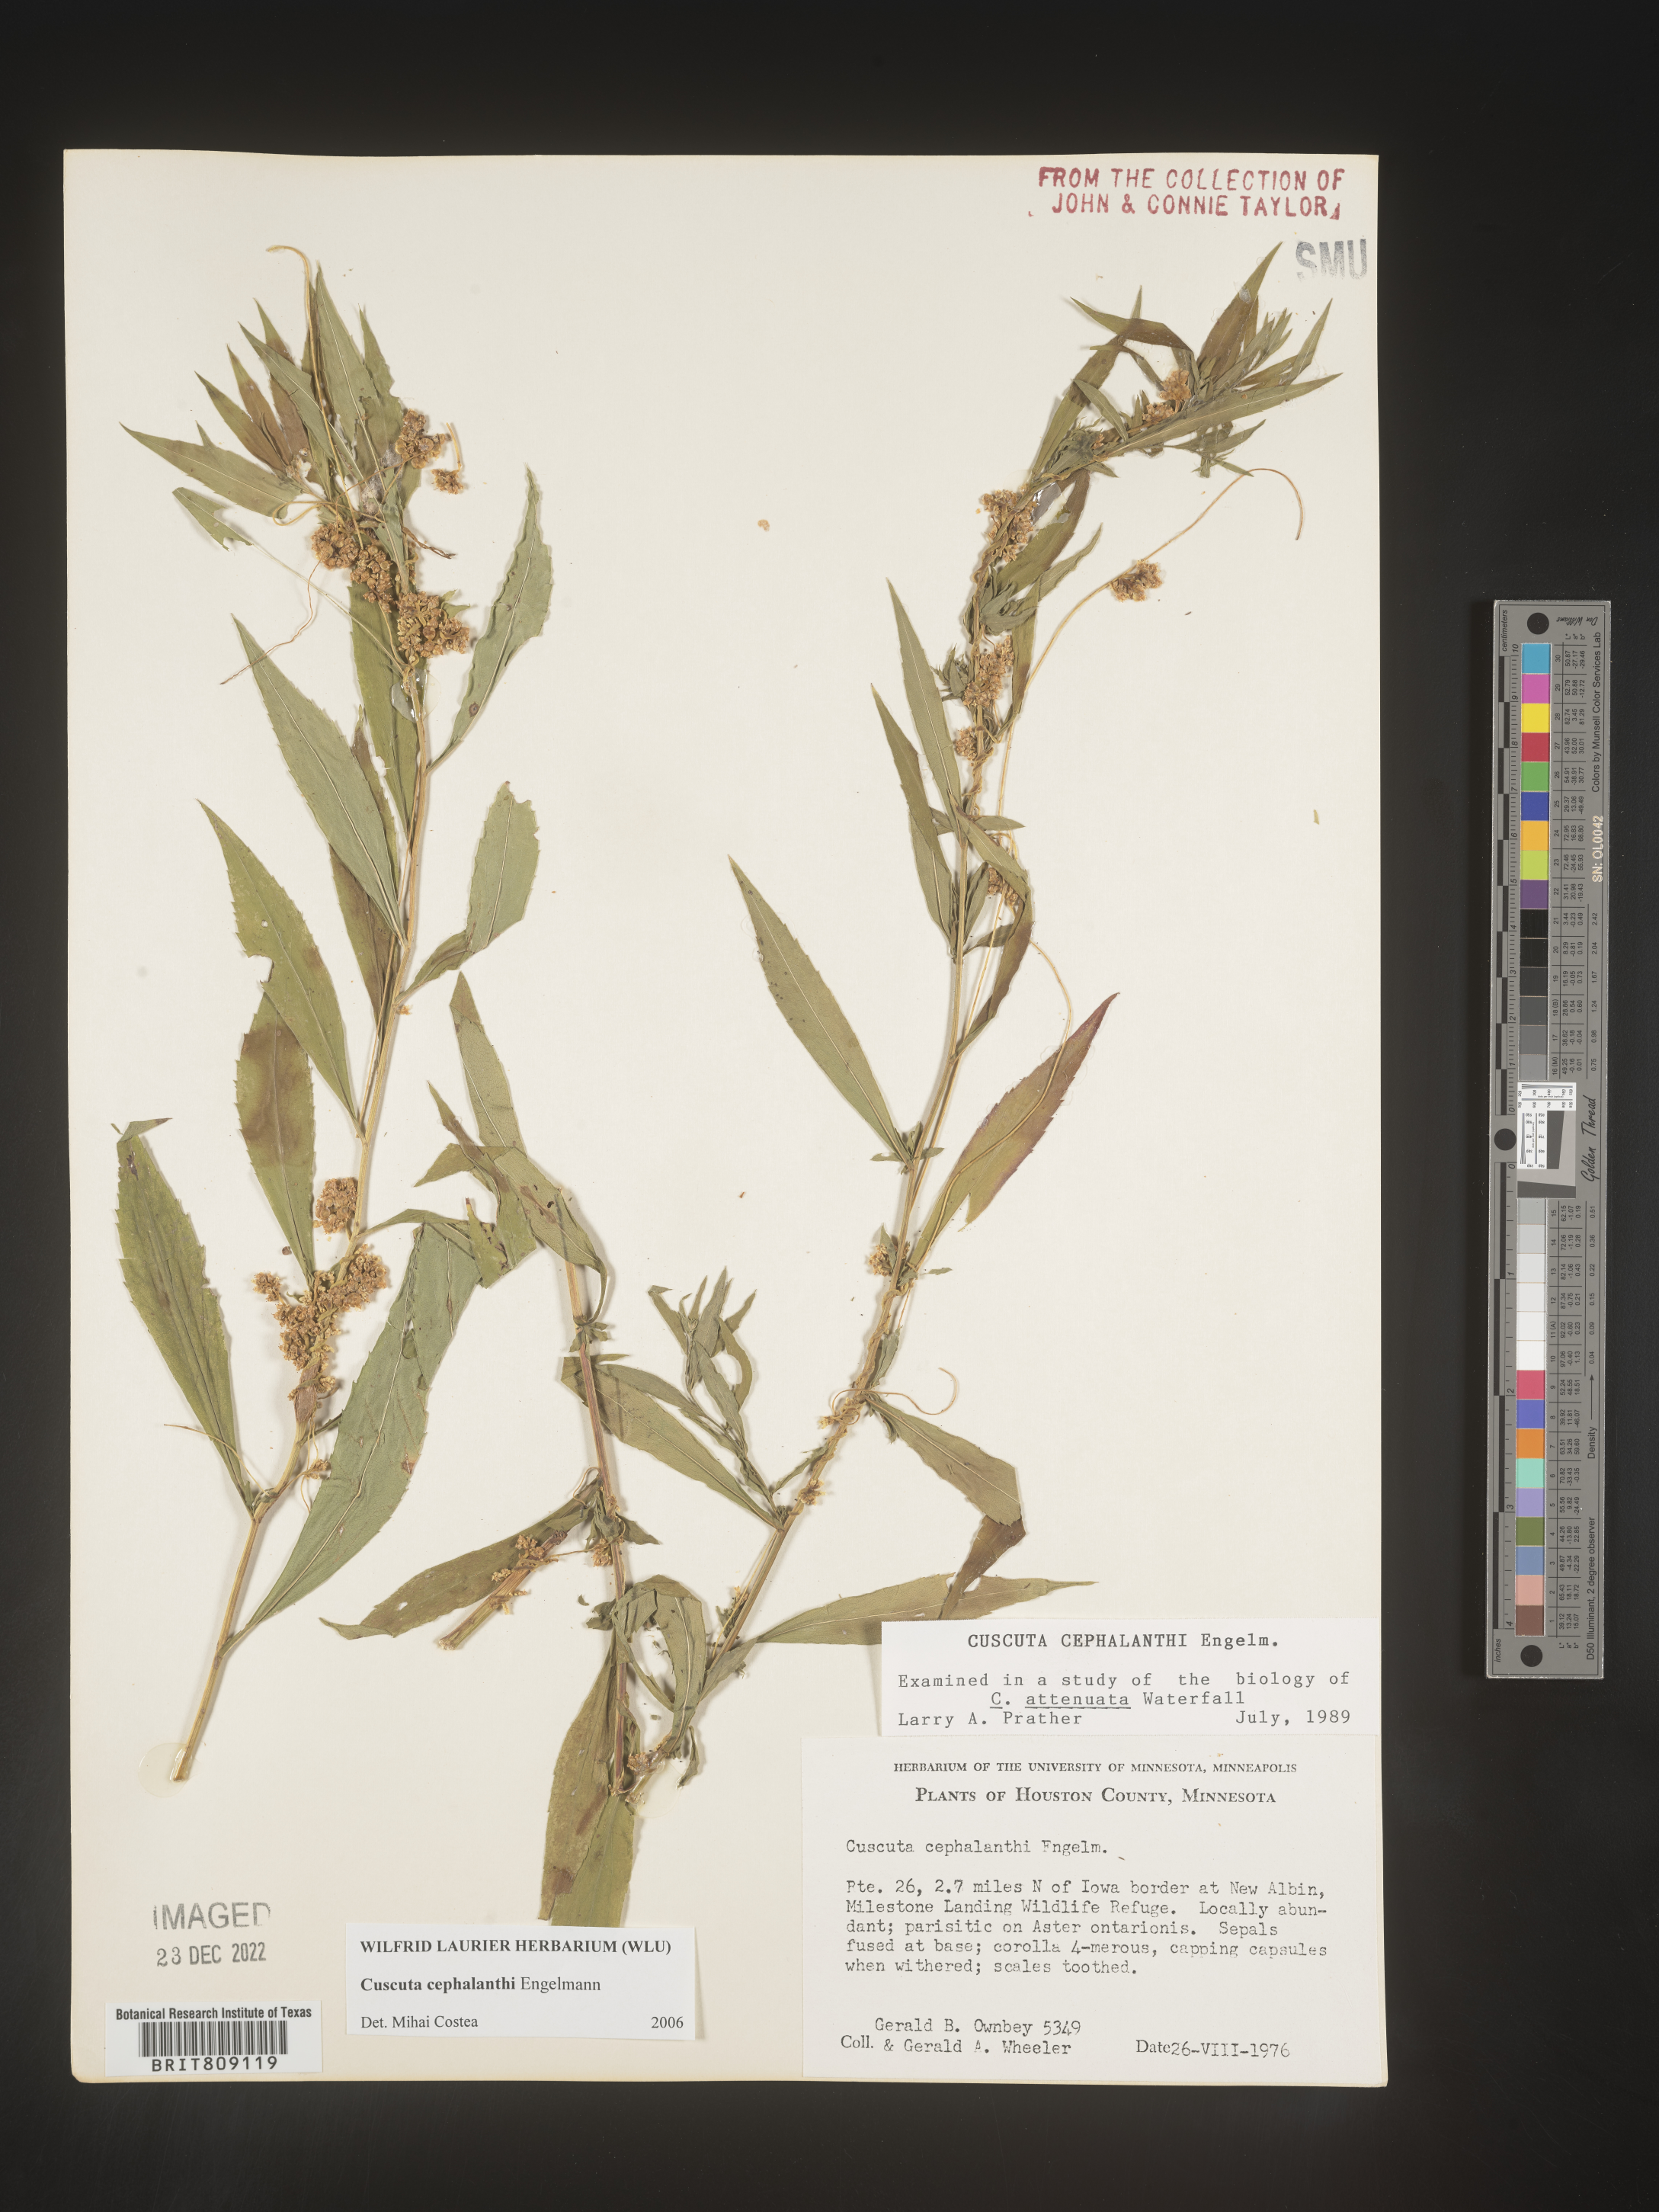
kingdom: Plantae
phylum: Tracheophyta
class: Magnoliopsida
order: Solanales
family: Convolvulaceae
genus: Cuscuta
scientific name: Cuscuta cephalanthi
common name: Button dodder
